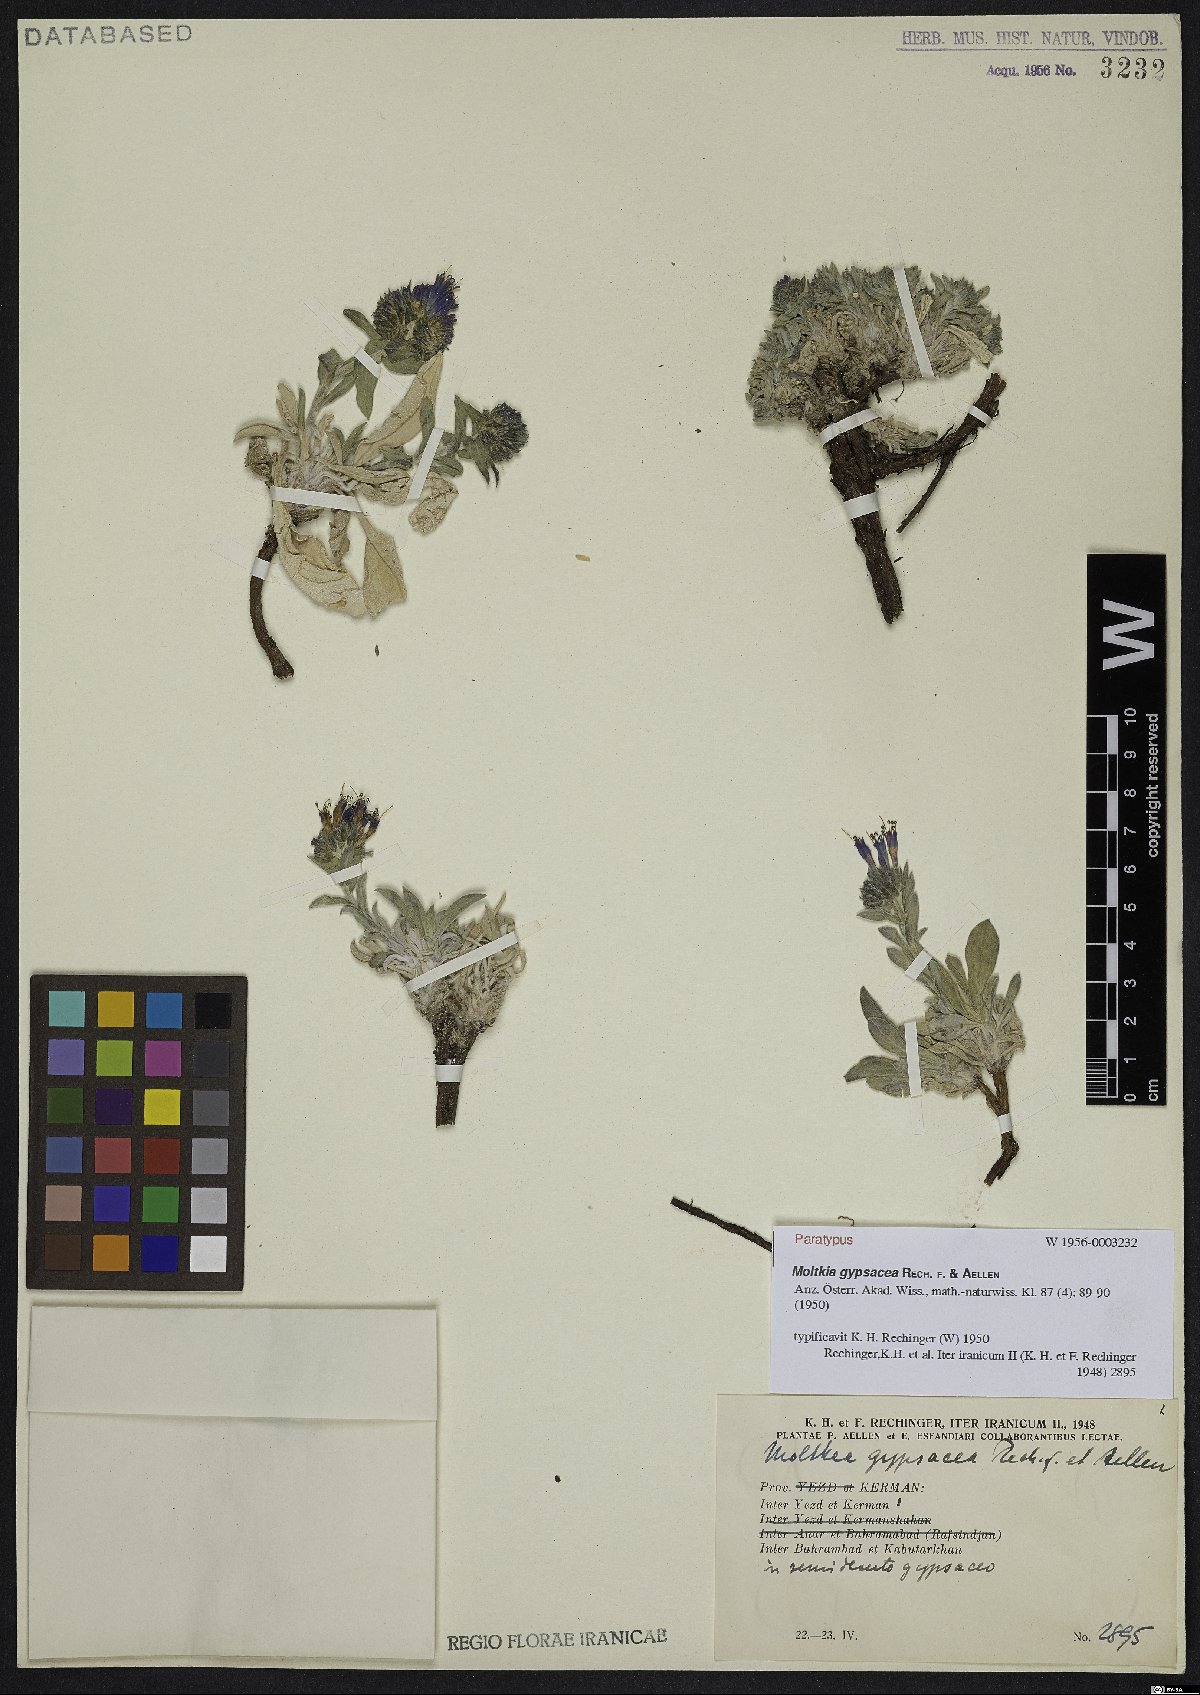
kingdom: Plantae
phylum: Tracheophyta
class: Magnoliopsida
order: Boraginales
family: Boraginaceae
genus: Moltkia
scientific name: Moltkia gypsacea
